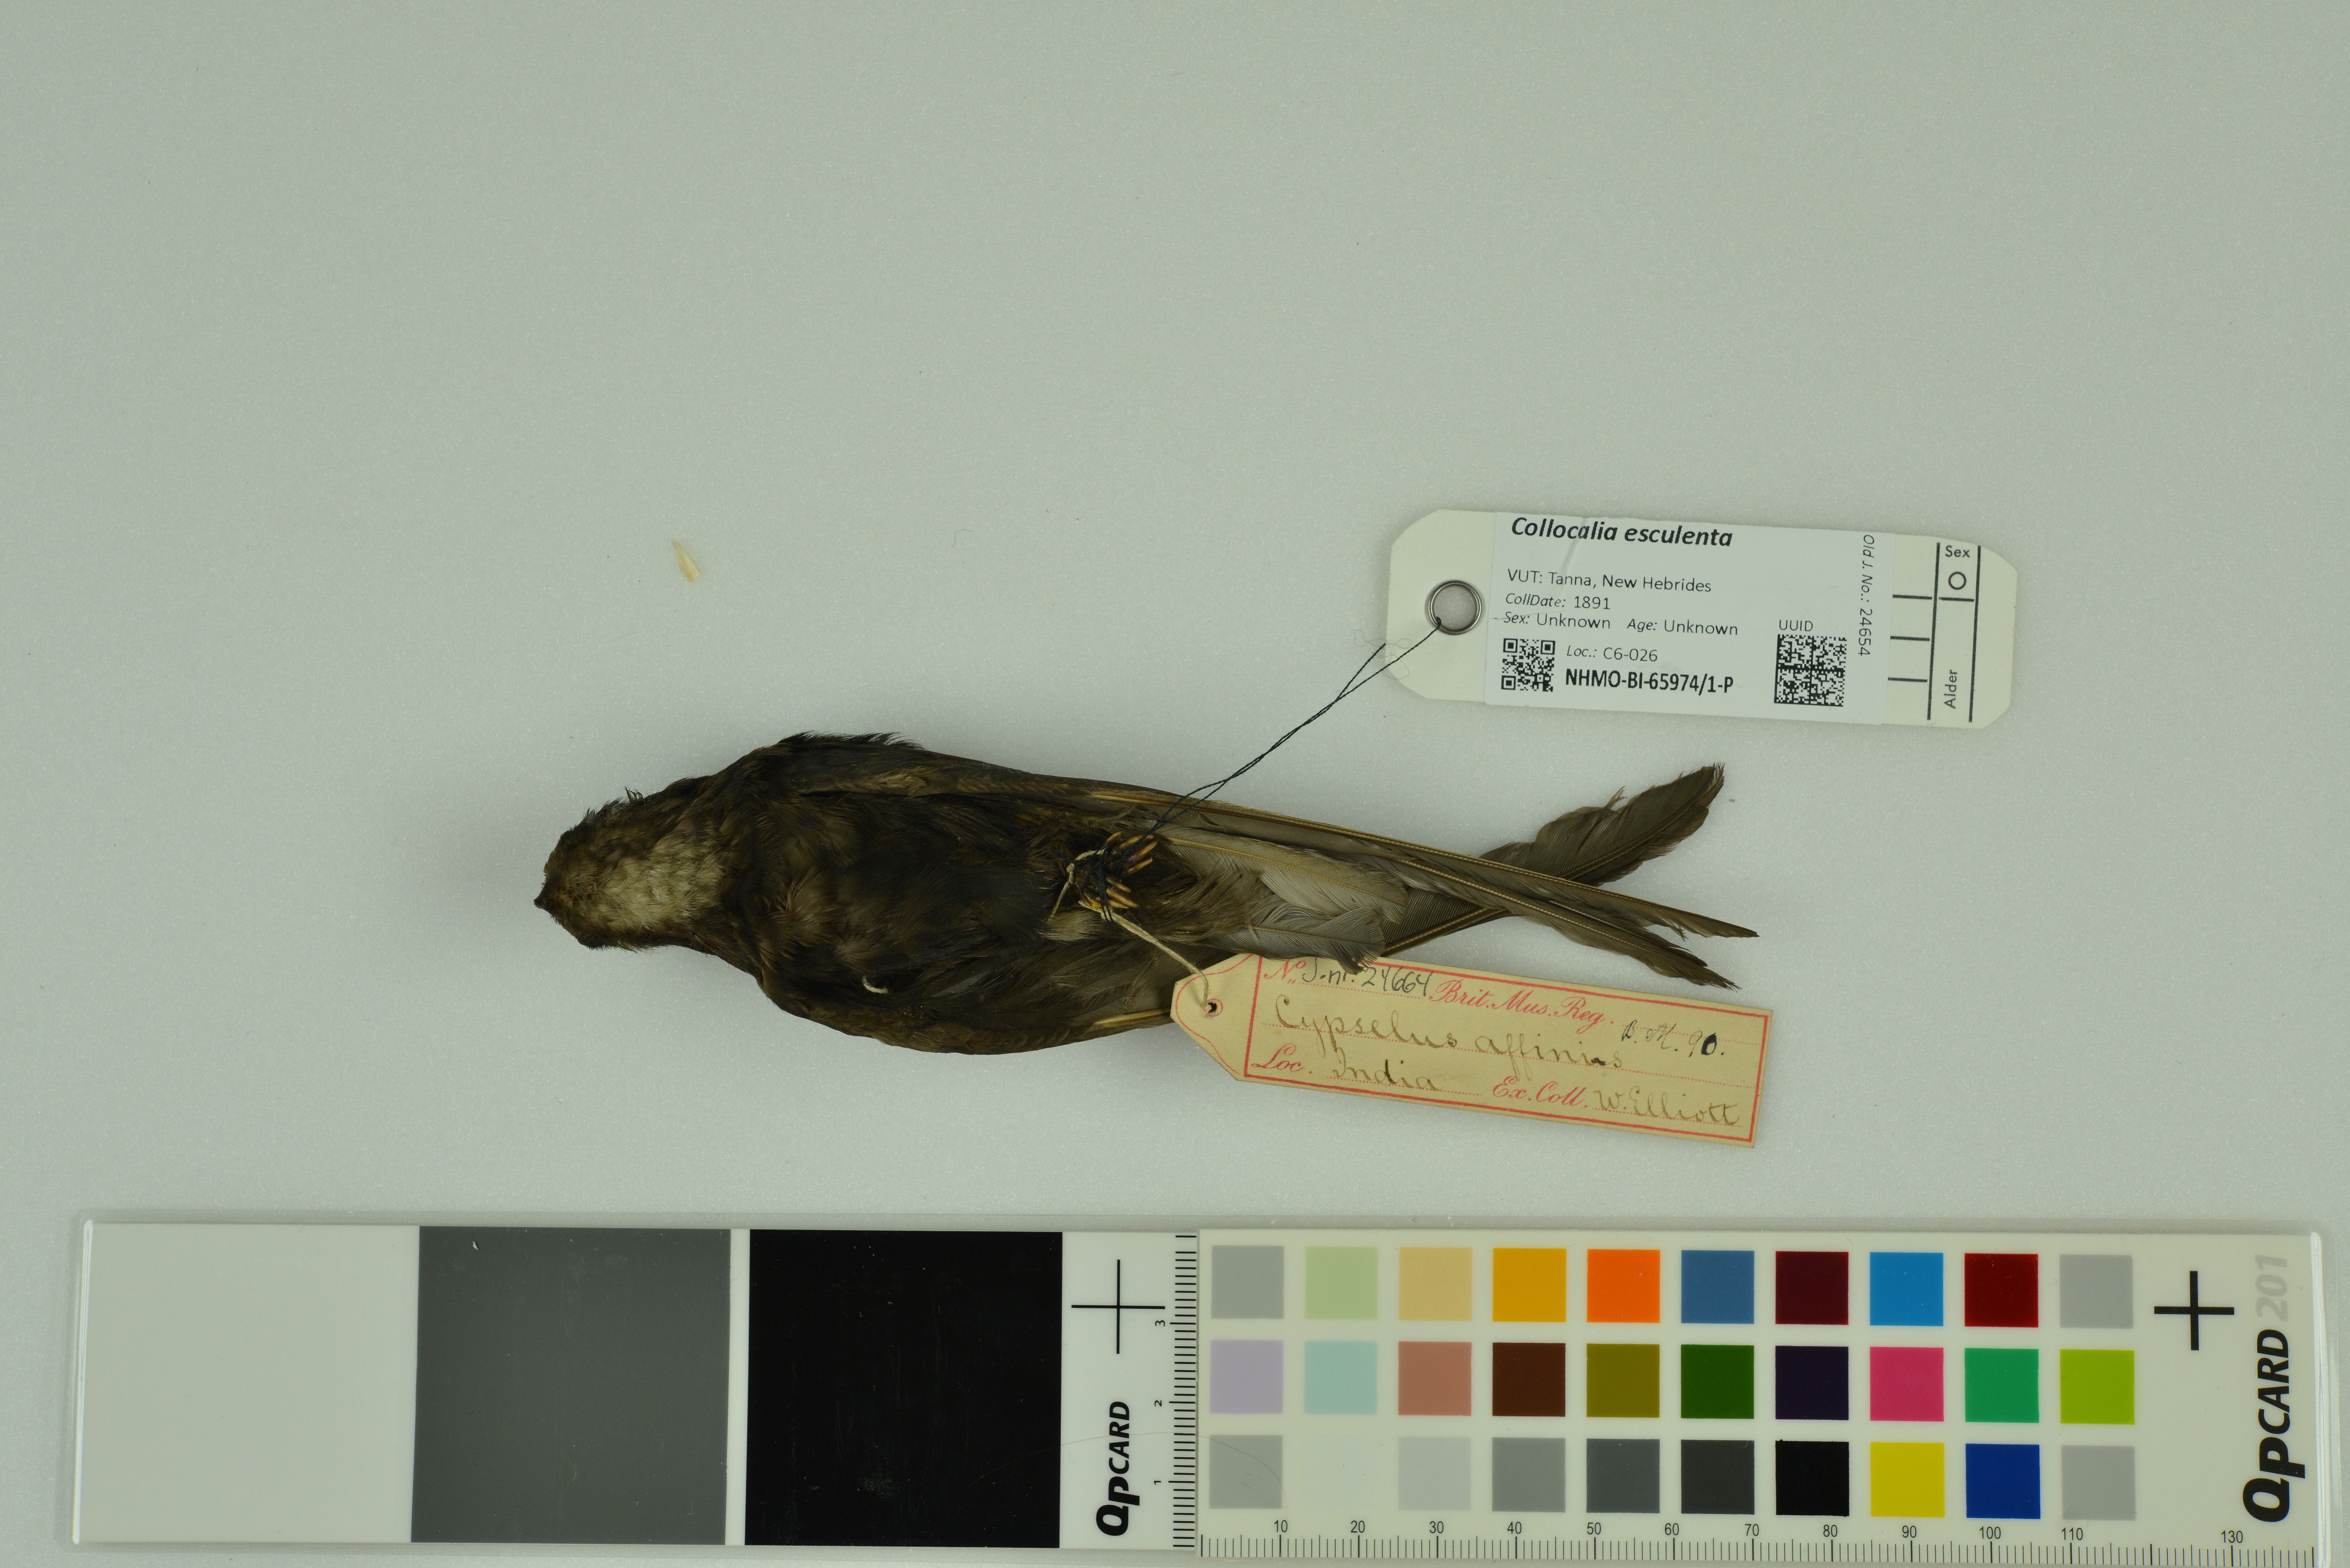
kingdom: Animalia
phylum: Chordata
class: Aves
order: Apodiformes
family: Apodidae
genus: Apus
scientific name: Apus affinis
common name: Little swift
